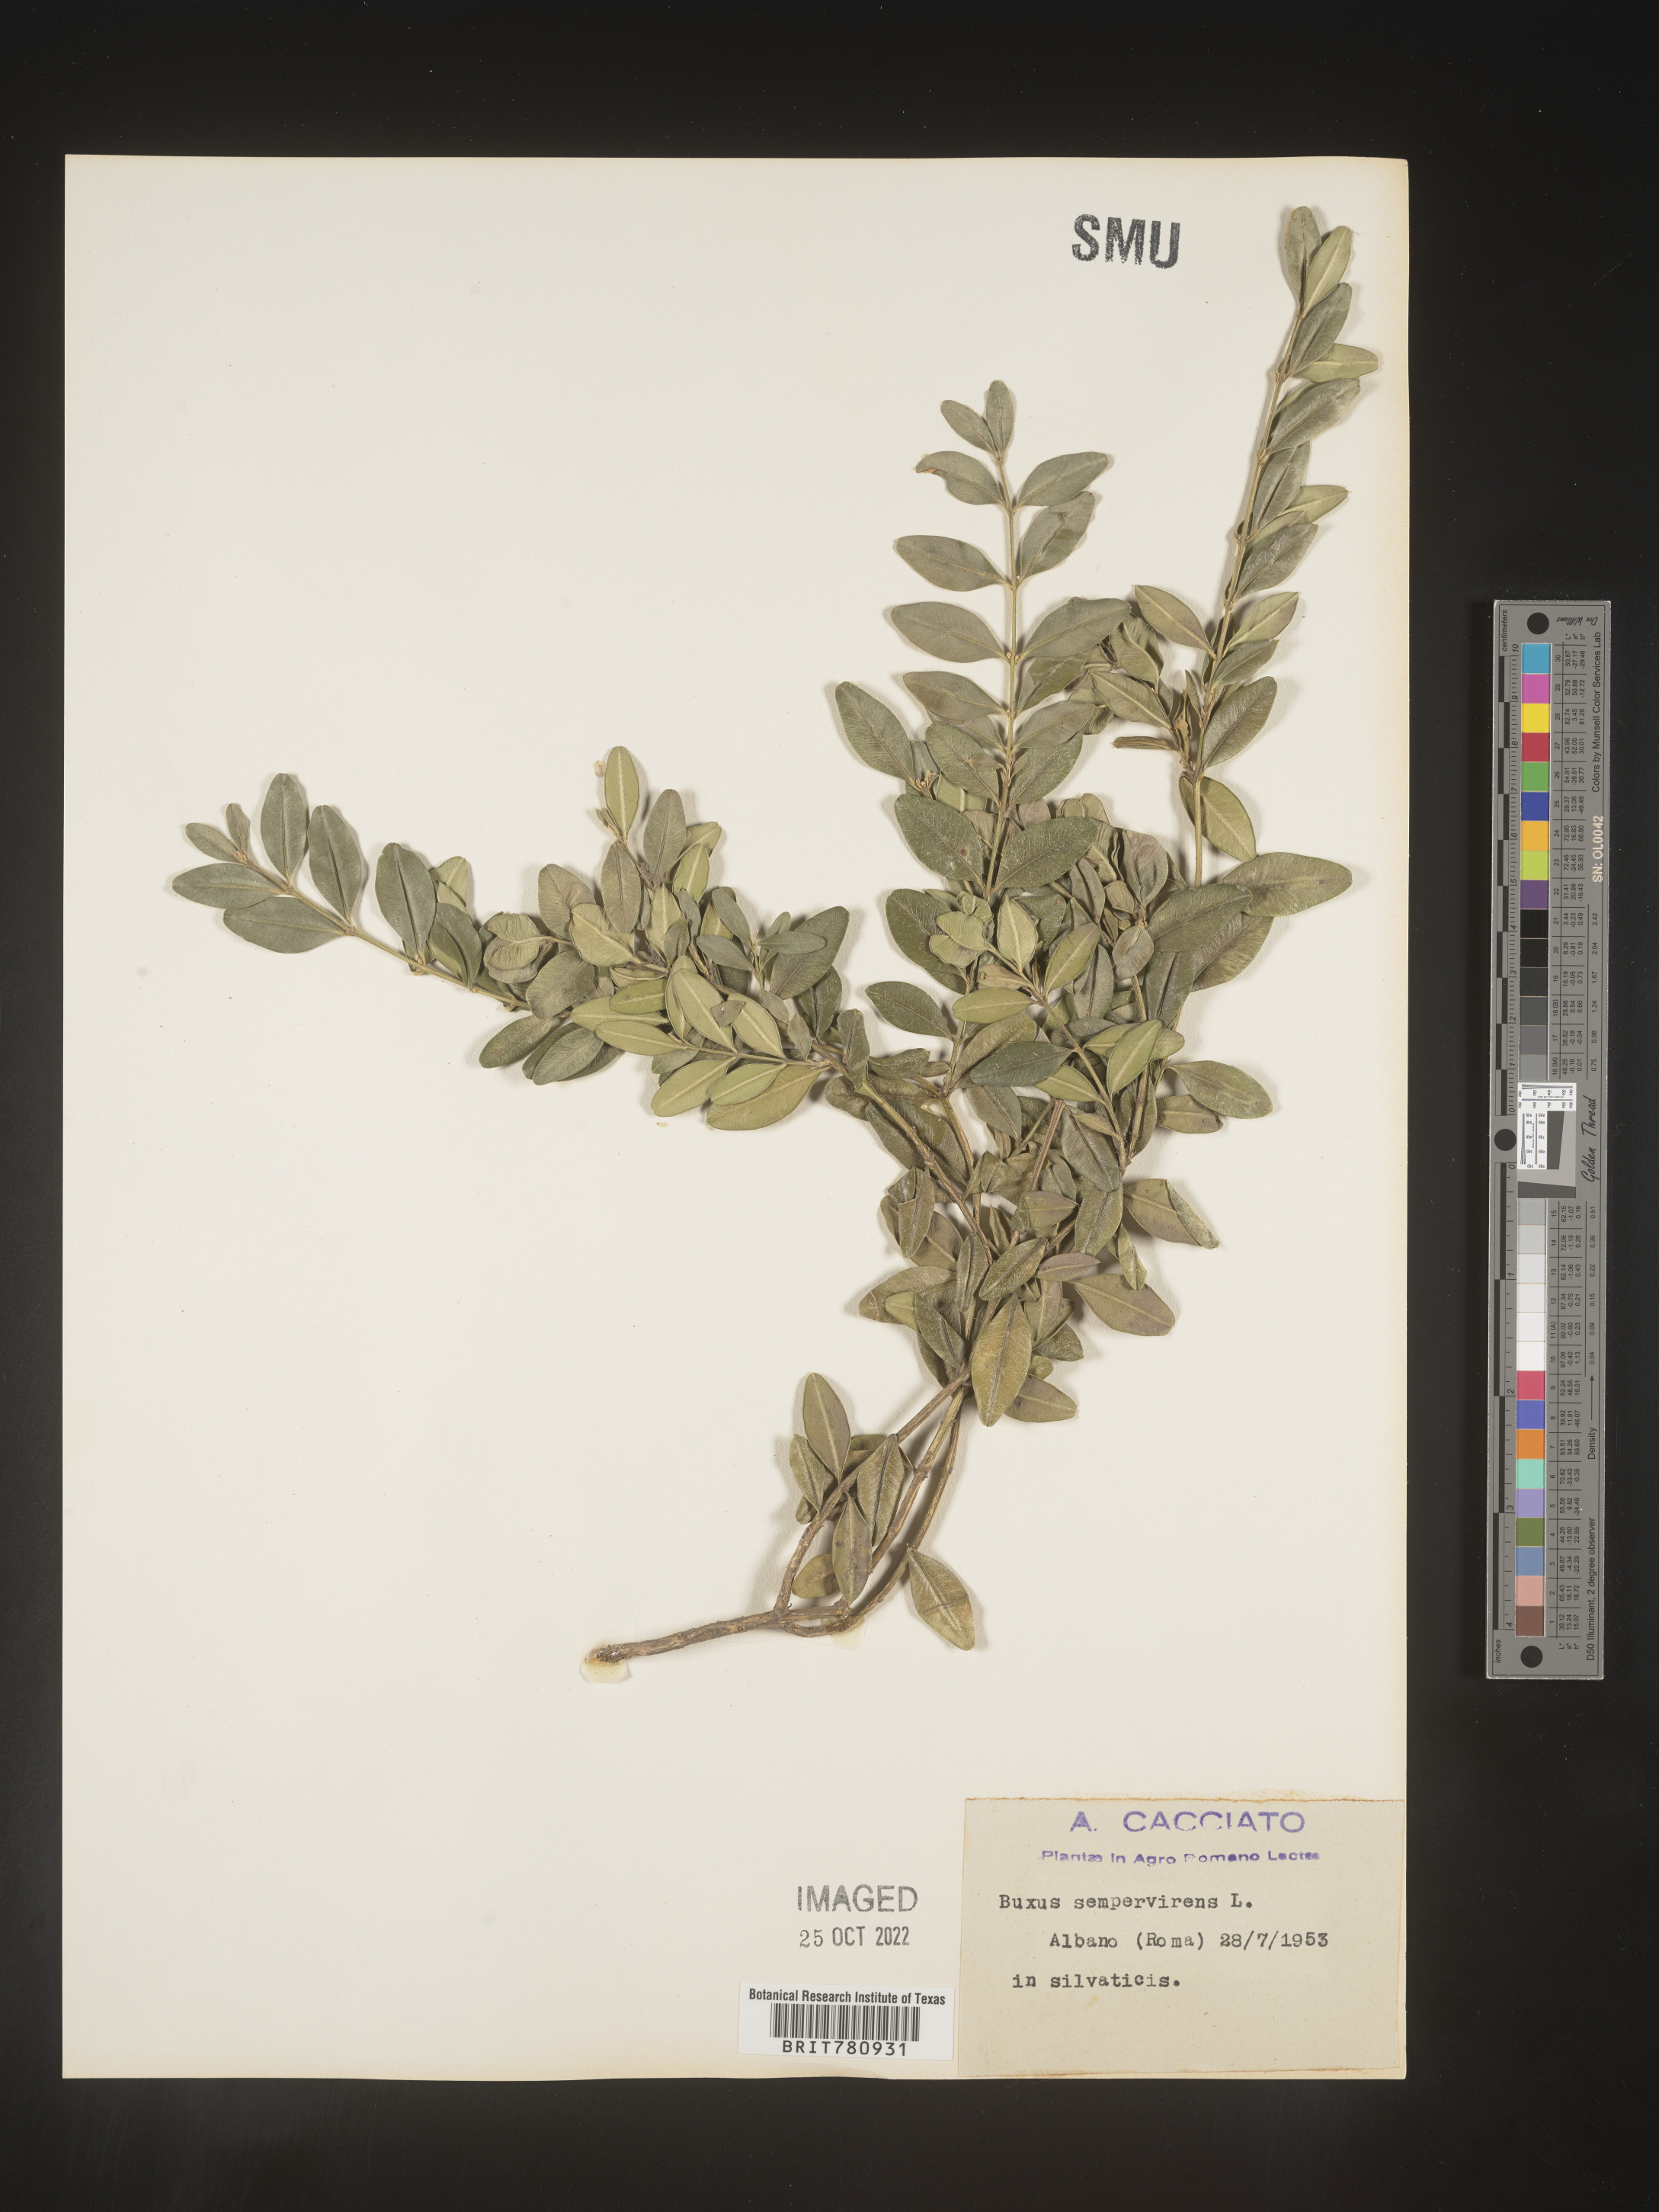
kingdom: Plantae
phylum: Tracheophyta
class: Magnoliopsida
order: Buxales
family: Buxaceae
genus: Buxus
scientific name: Buxus
